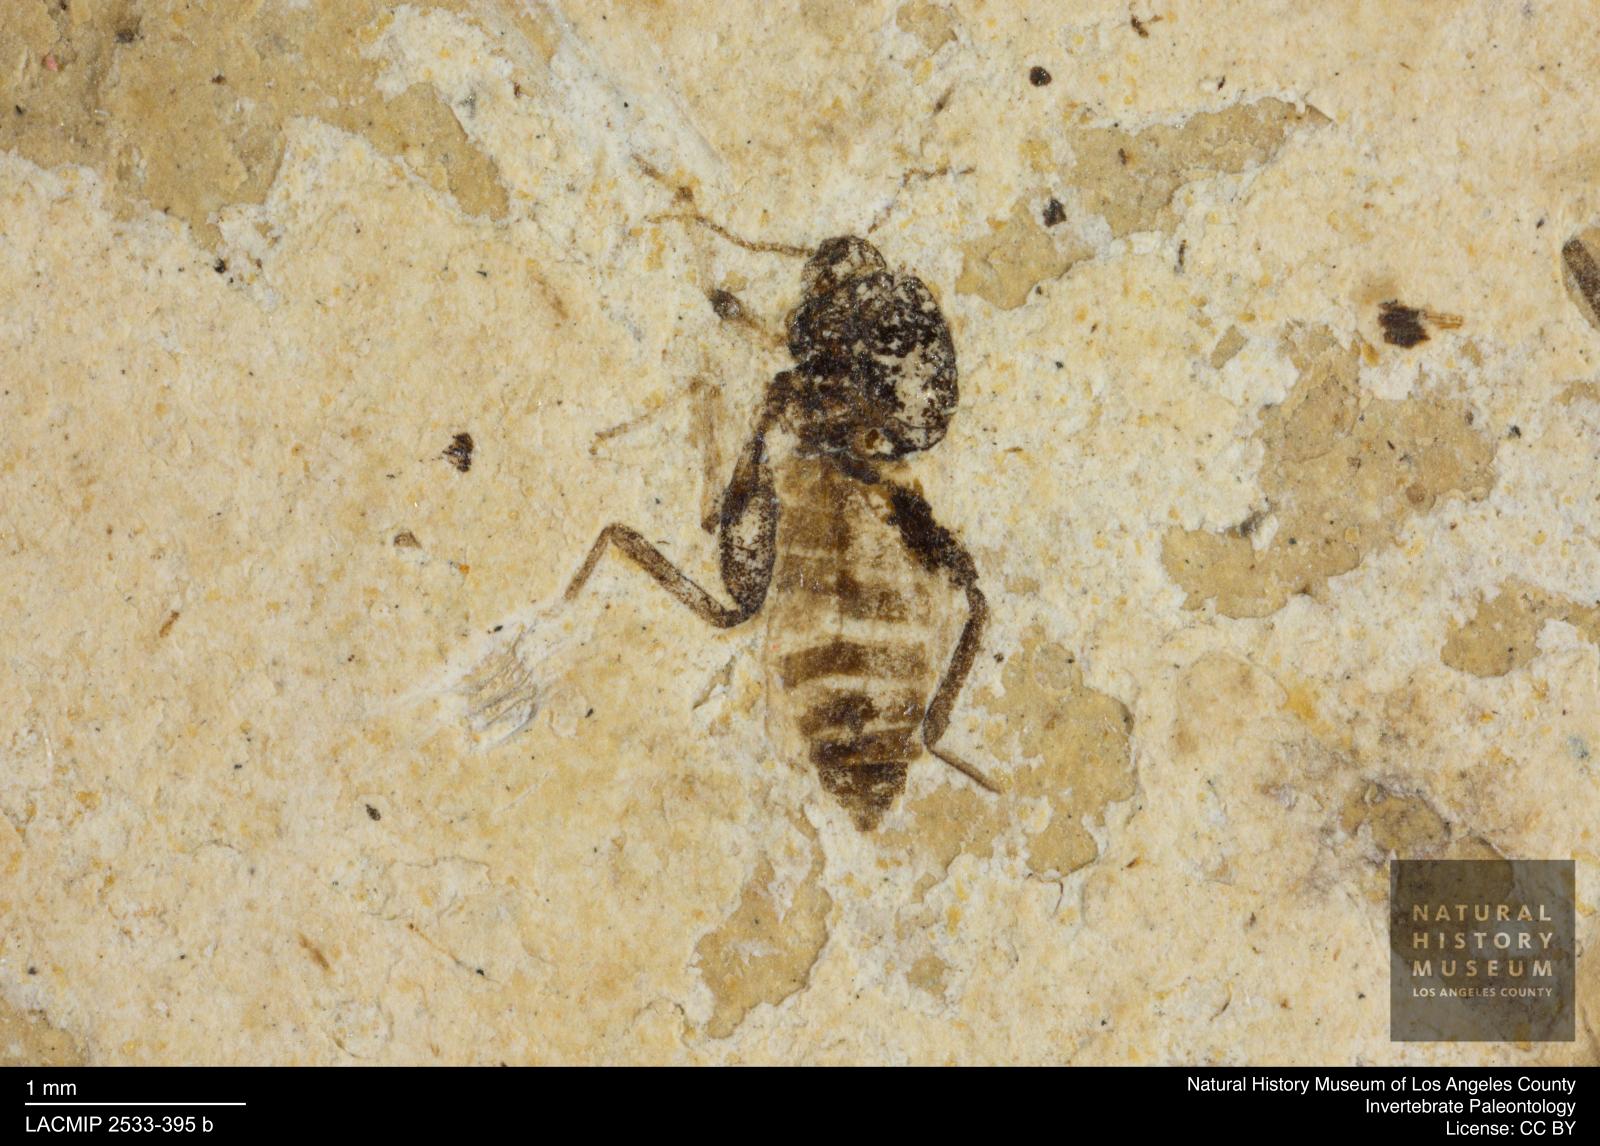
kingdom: Animalia
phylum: Arthropoda
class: Insecta
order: Diptera
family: Ceratopogonidae
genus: Serromyia
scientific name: Serromyia alphea
